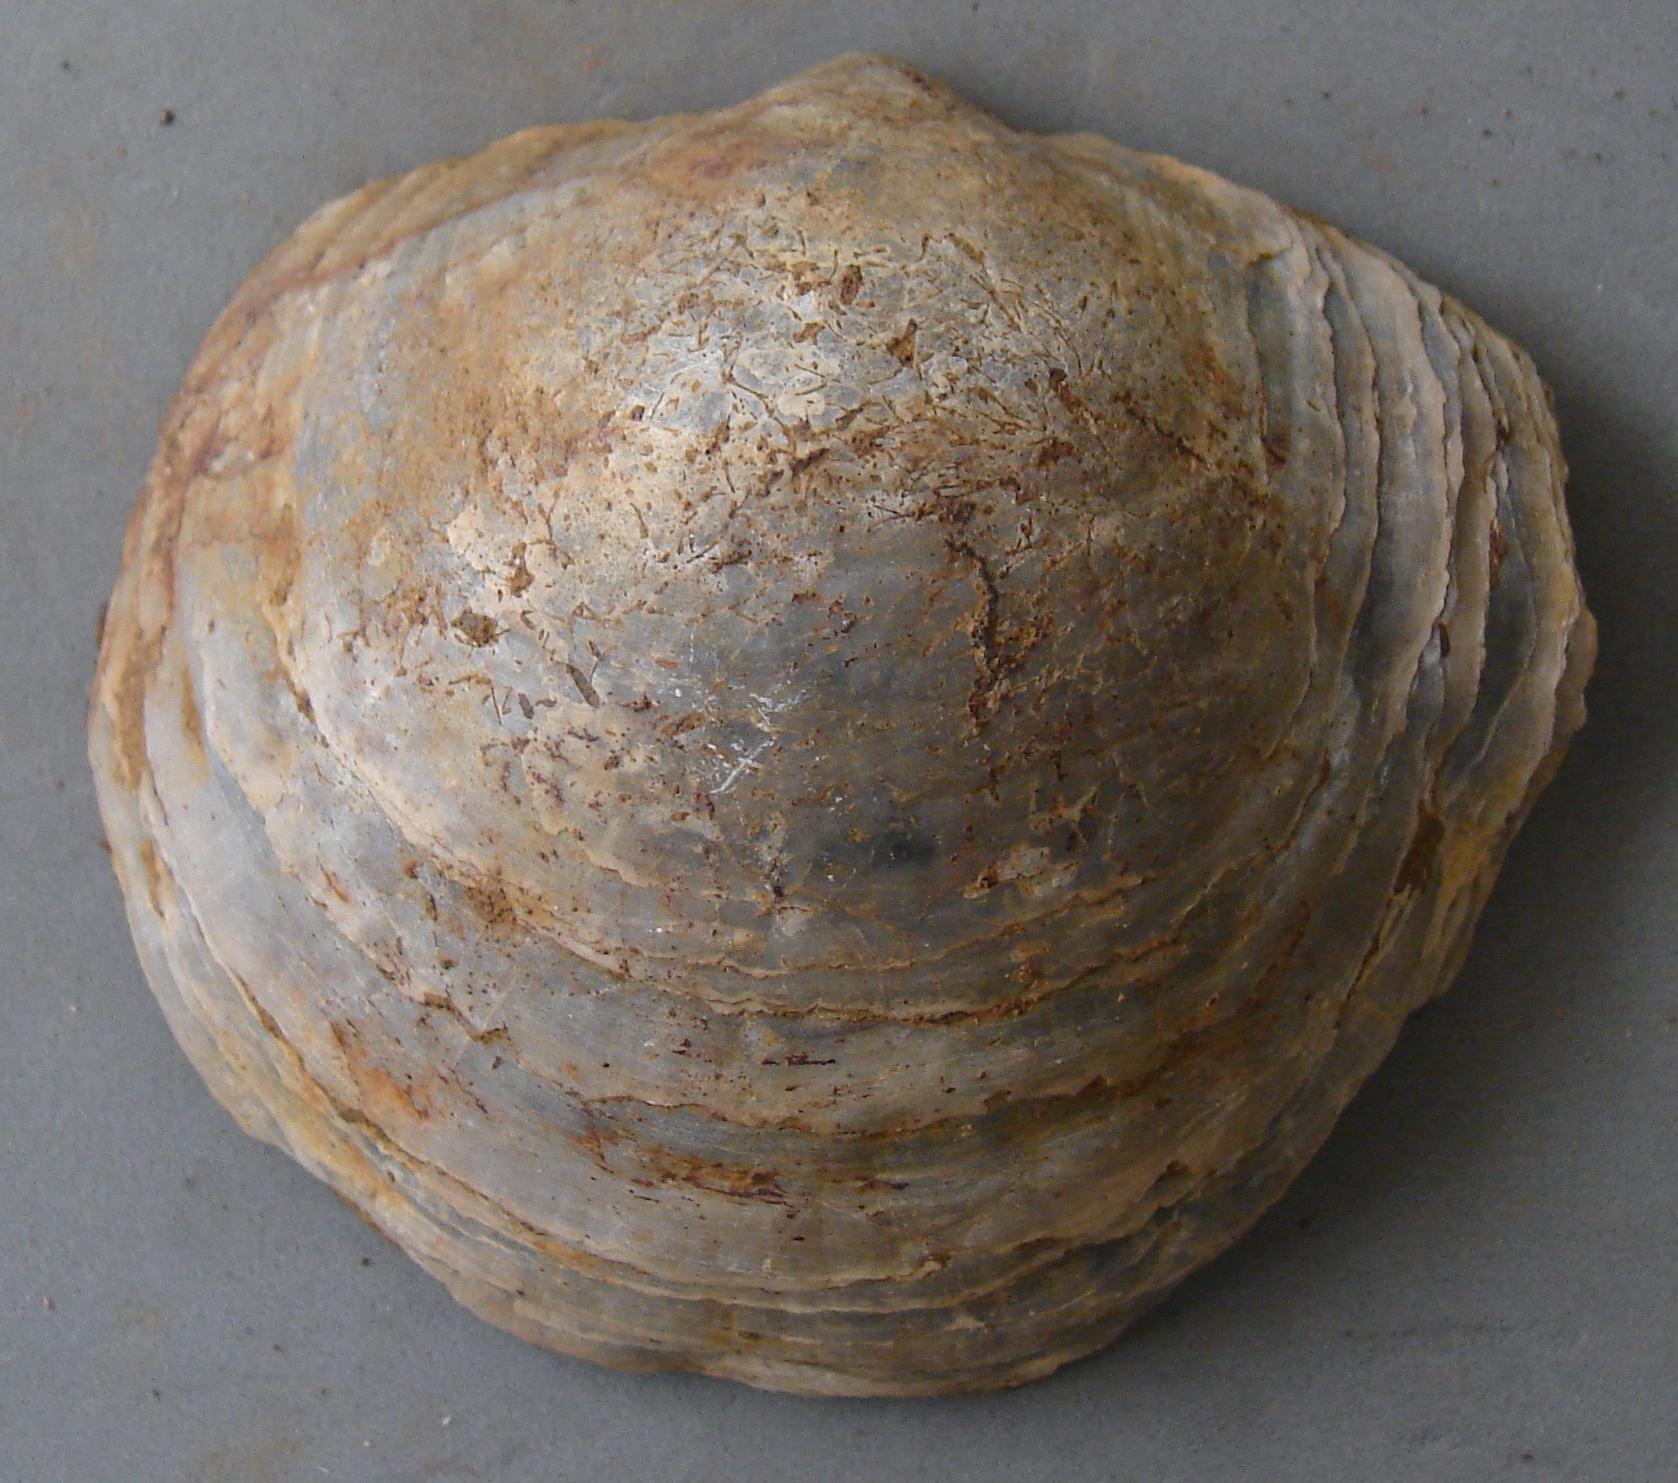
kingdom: Animalia
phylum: Mollusca
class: Bivalvia
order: Ostreida
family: Gryphaeidae
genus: Gryphaea
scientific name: Gryphaea
